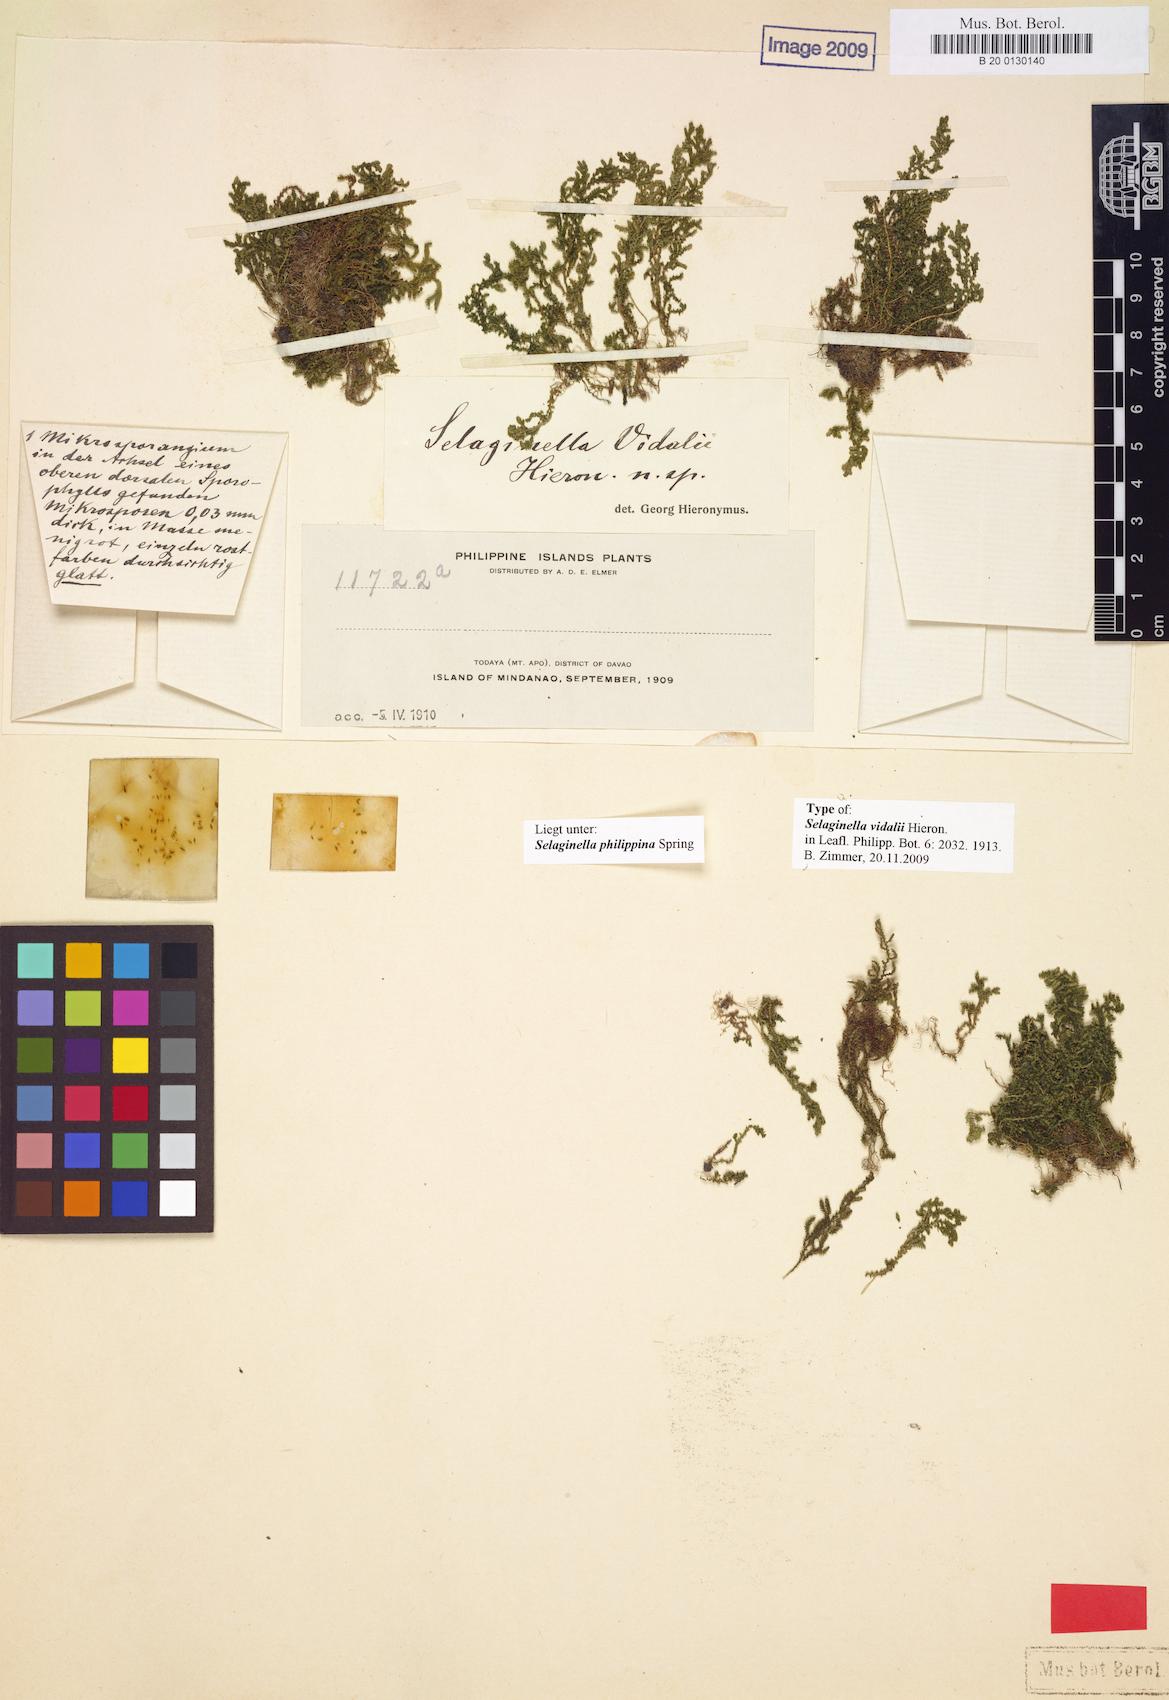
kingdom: Plantae
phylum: Tracheophyta
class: Lycopodiopsida
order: Selaginellales
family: Selaginellaceae
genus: Selaginella
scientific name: Selaginella philippsiana
